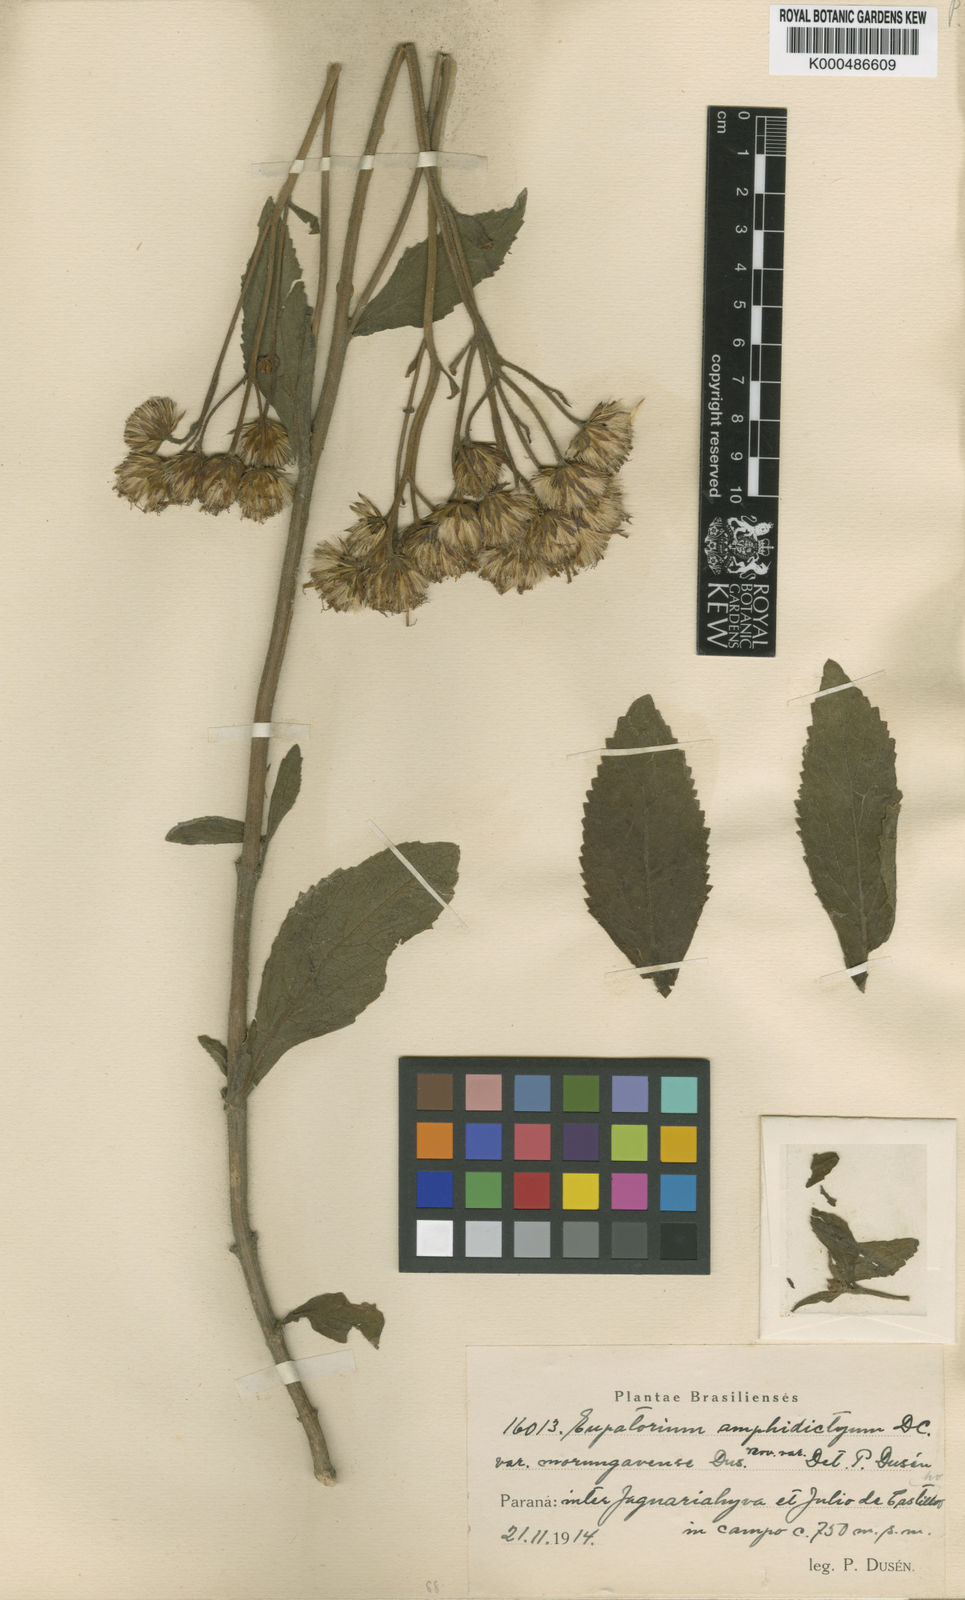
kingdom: Plantae
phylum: Tracheophyta
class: Magnoliopsida
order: Asterales
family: Asteraceae
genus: Heterocondylus
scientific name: Heterocondylus inesiae
